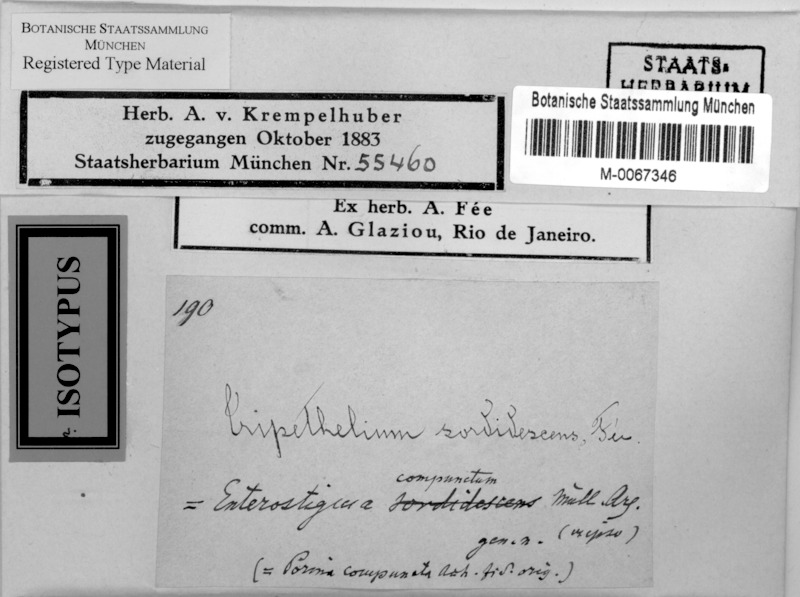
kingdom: Fungi
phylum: Ascomycota
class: Lecanoromycetes
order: Ostropales
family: Graphidaceae
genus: Leucodecton
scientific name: Leucodecton sordidescens
